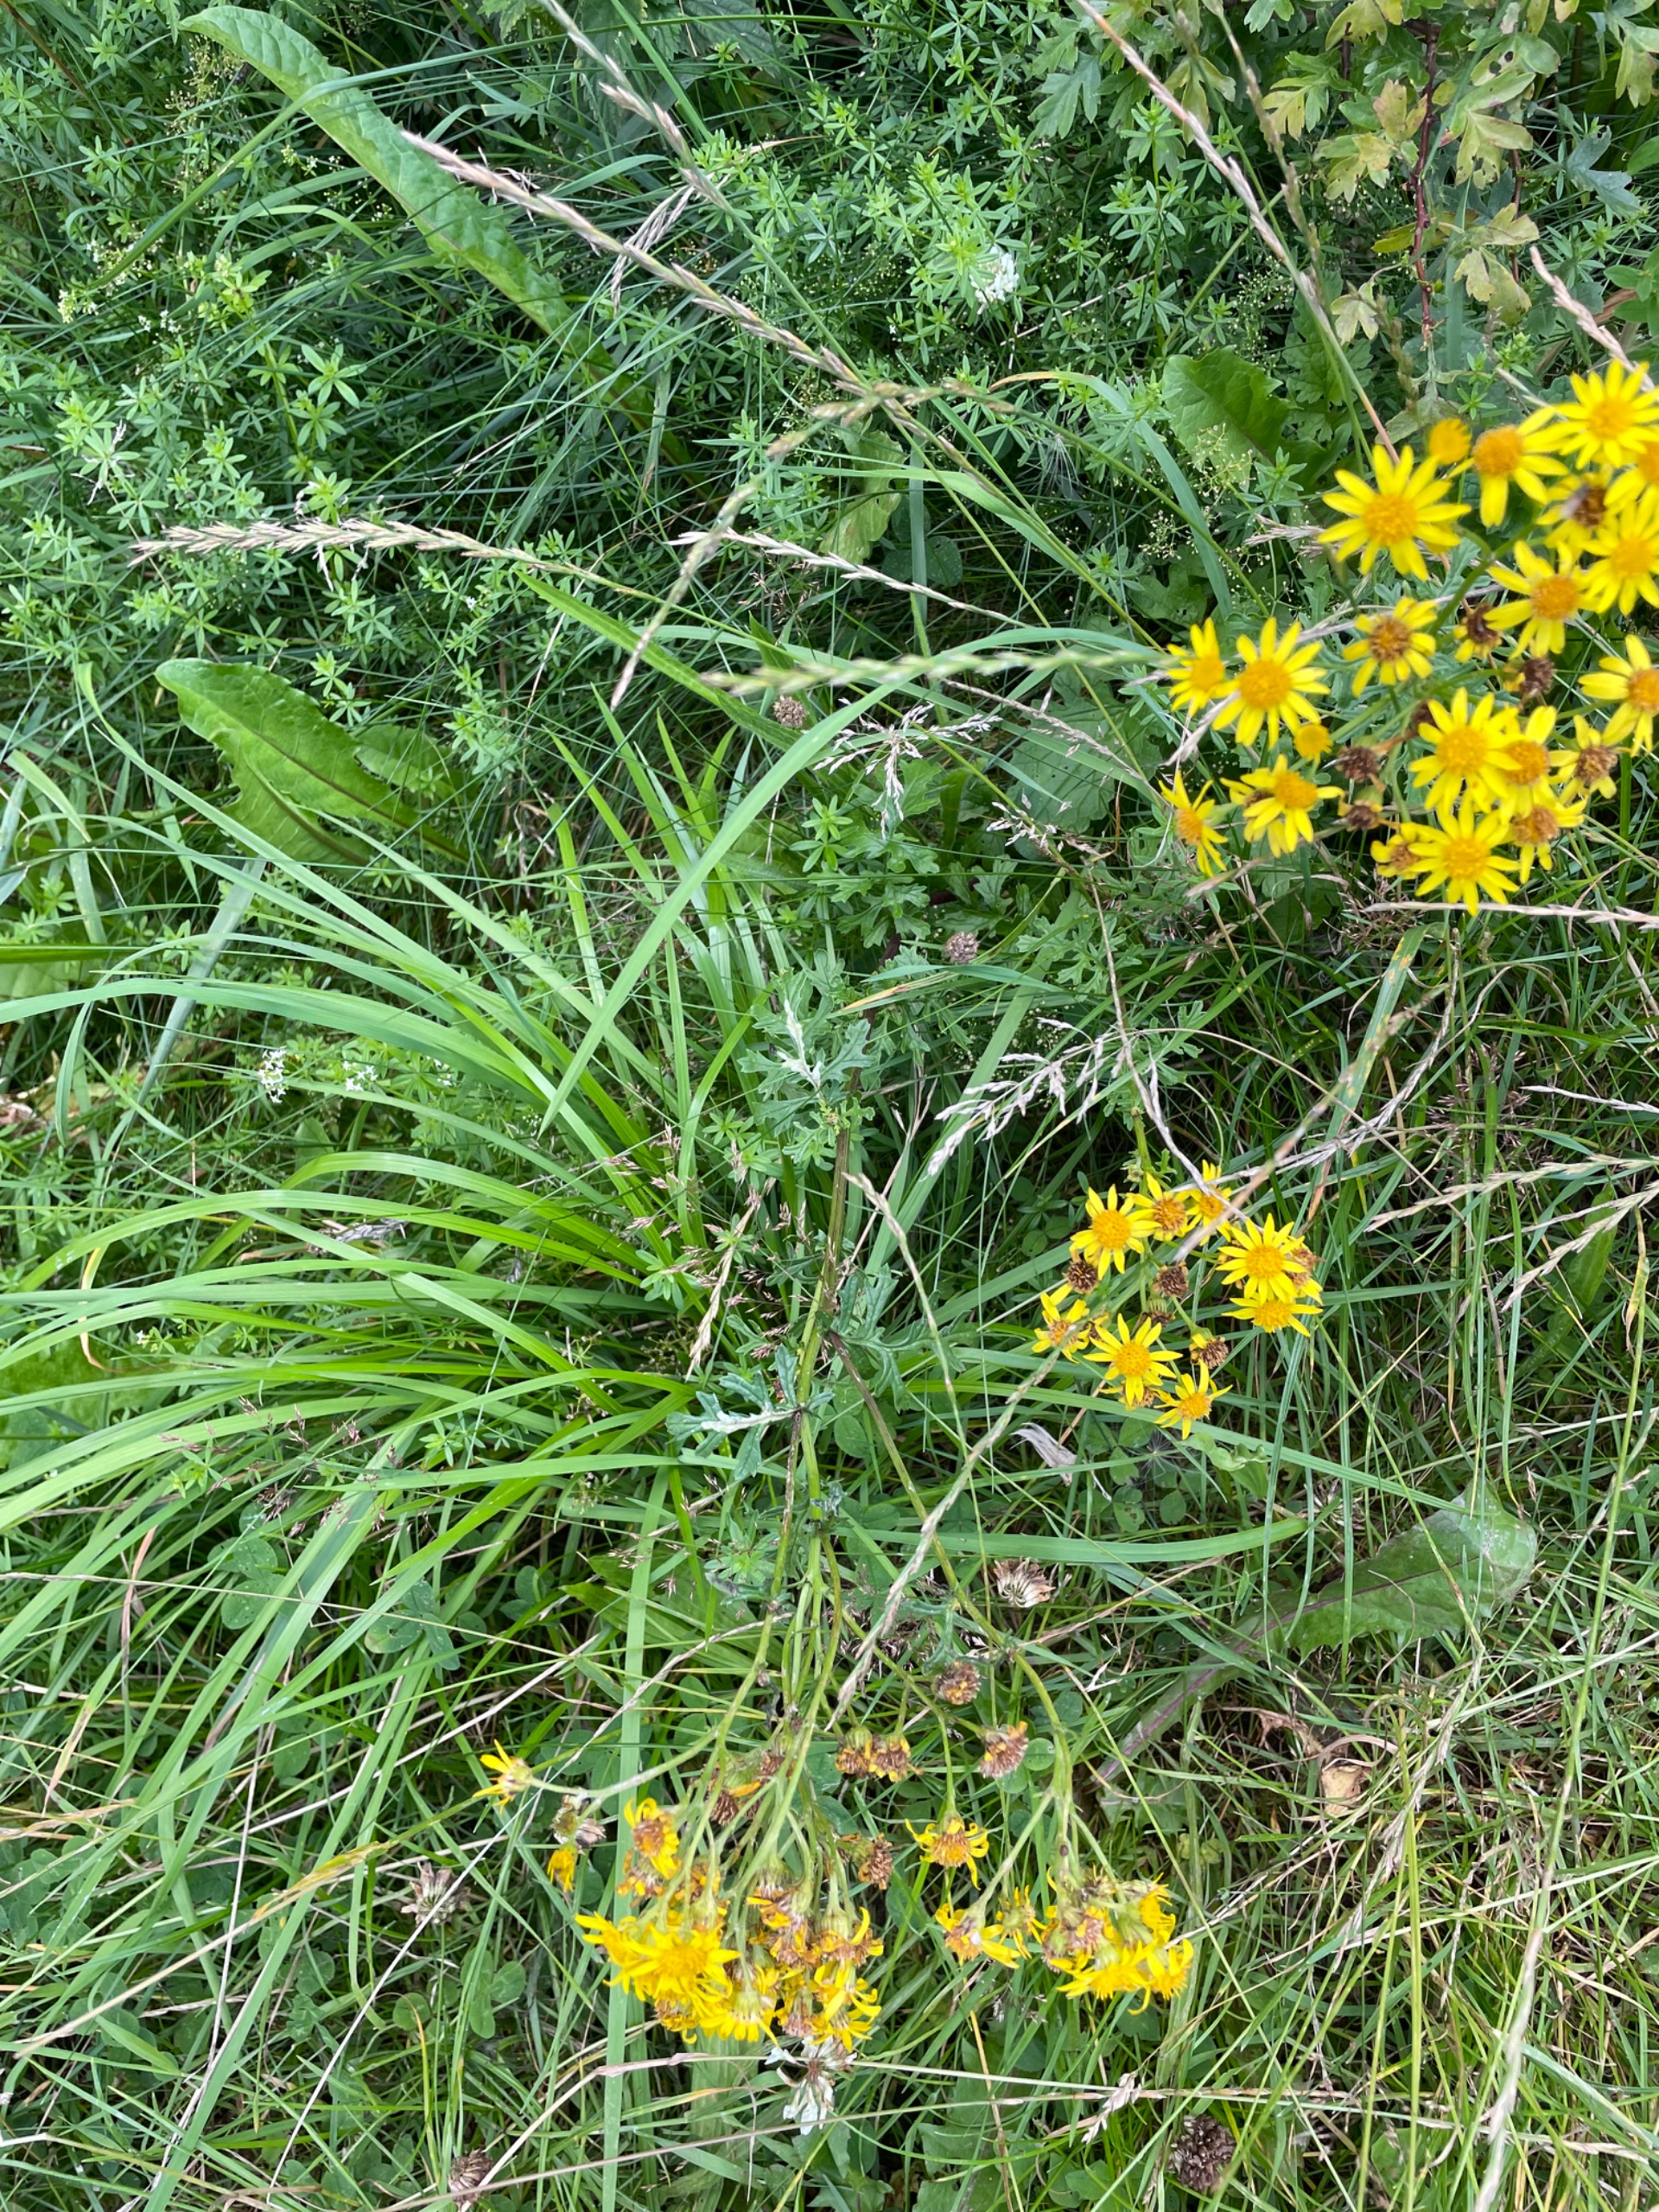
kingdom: Plantae
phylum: Tracheophyta
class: Magnoliopsida
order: Asterales
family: Asteraceae
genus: Jacobaea
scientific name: Jacobaea vulgaris
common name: Eng-brandbæger
